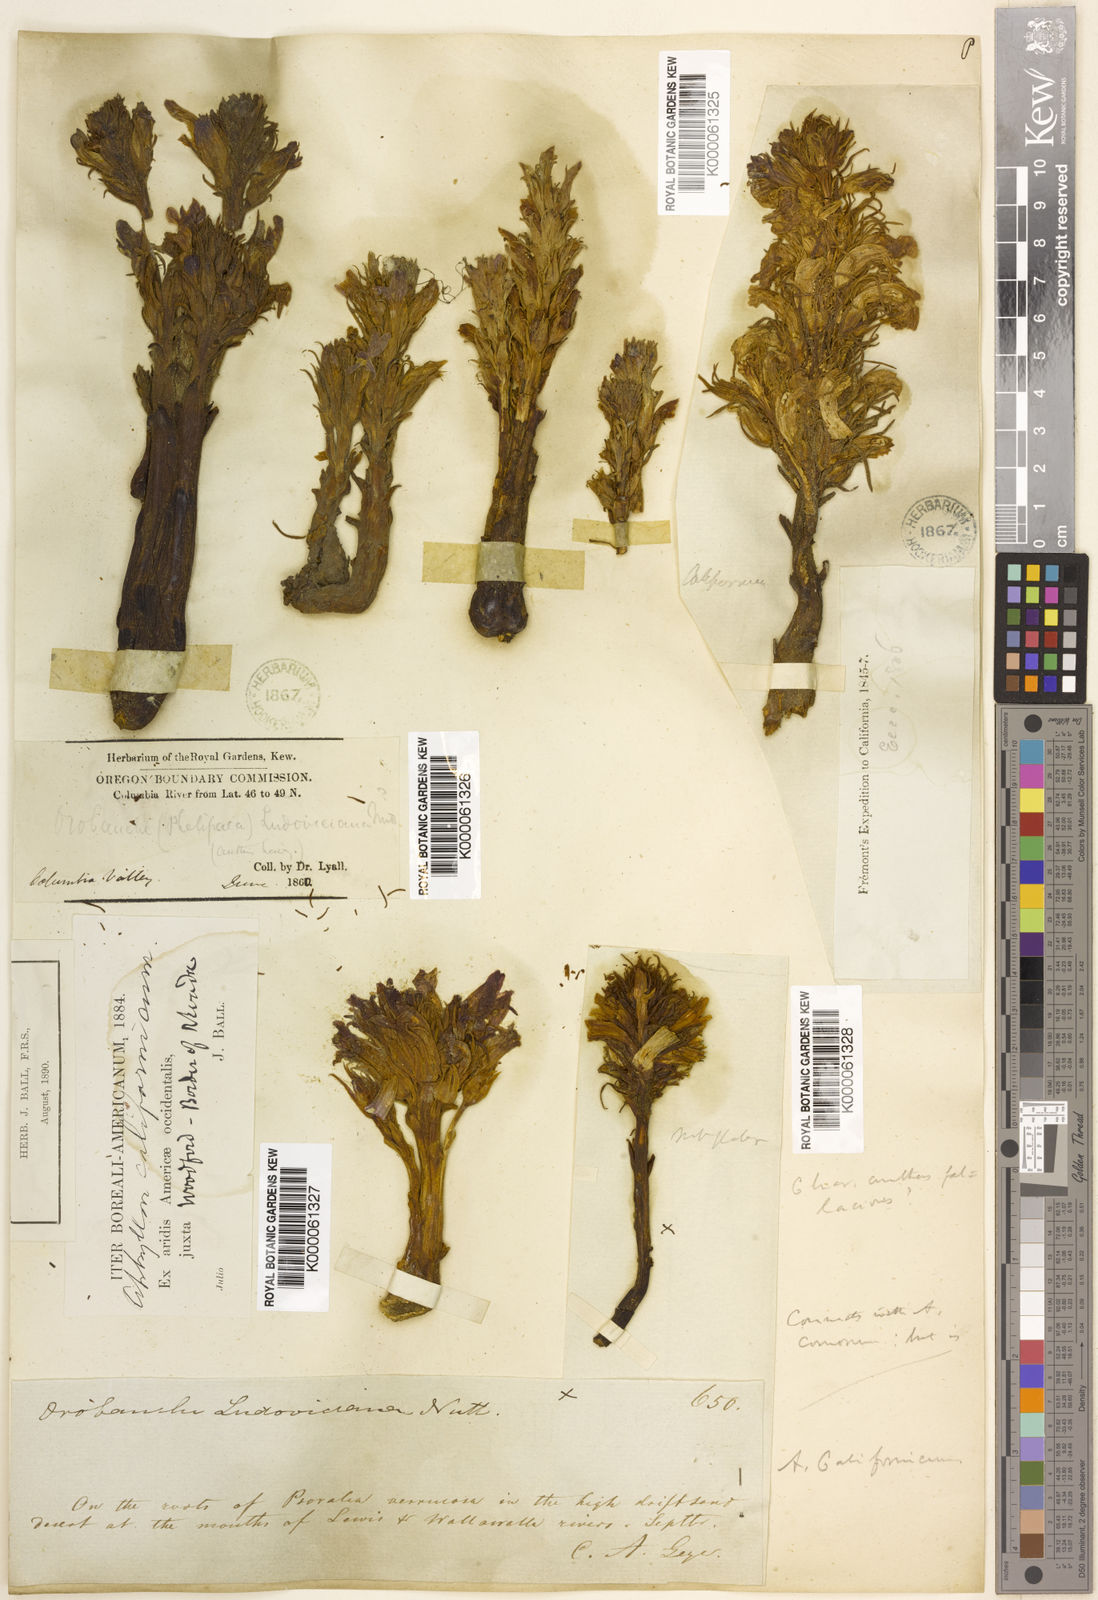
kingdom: Plantae
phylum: Tracheophyta
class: Magnoliopsida
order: Lamiales
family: Orobanchaceae
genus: Aphyllon
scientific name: Aphyllon californicum
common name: California broomrape
